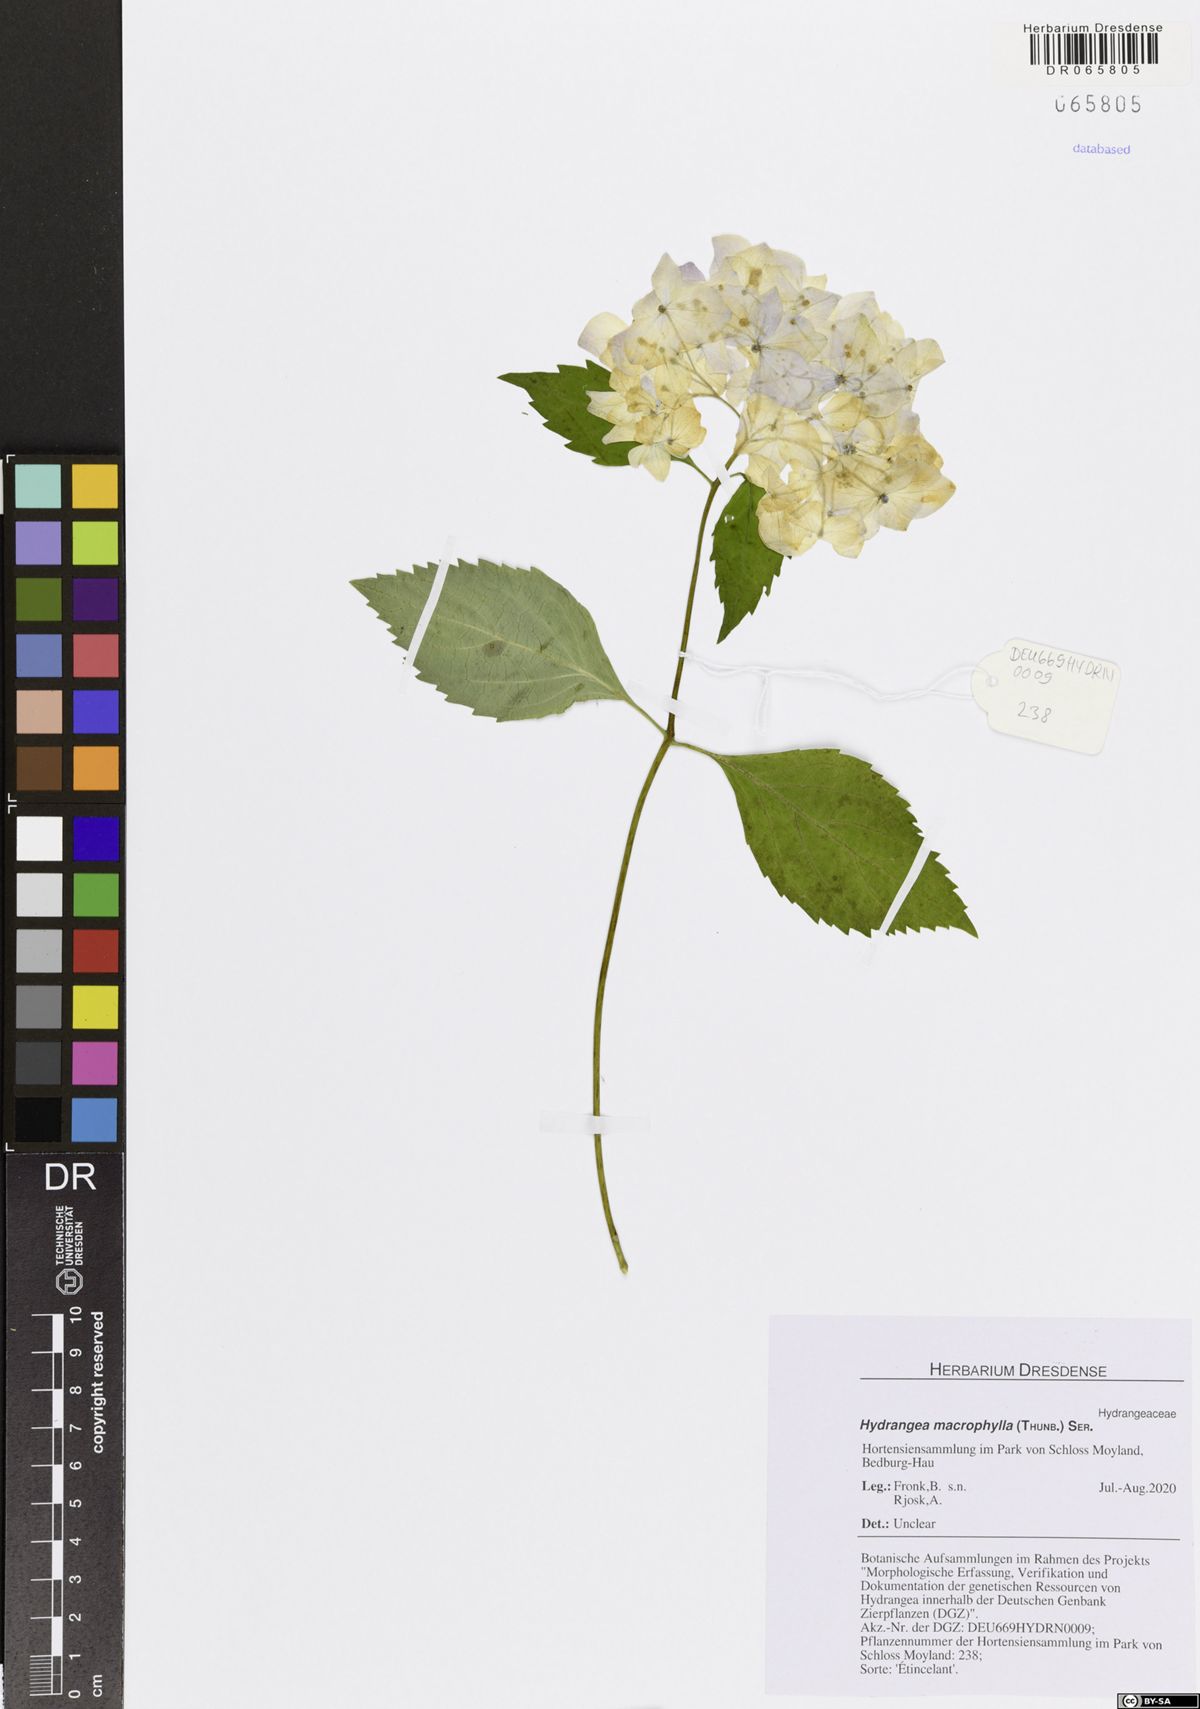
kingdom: Plantae
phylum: Tracheophyta
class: Magnoliopsida
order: Cornales
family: Hydrangeaceae
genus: Hydrangea
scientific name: Hydrangea macrophylla
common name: Hydrangea
